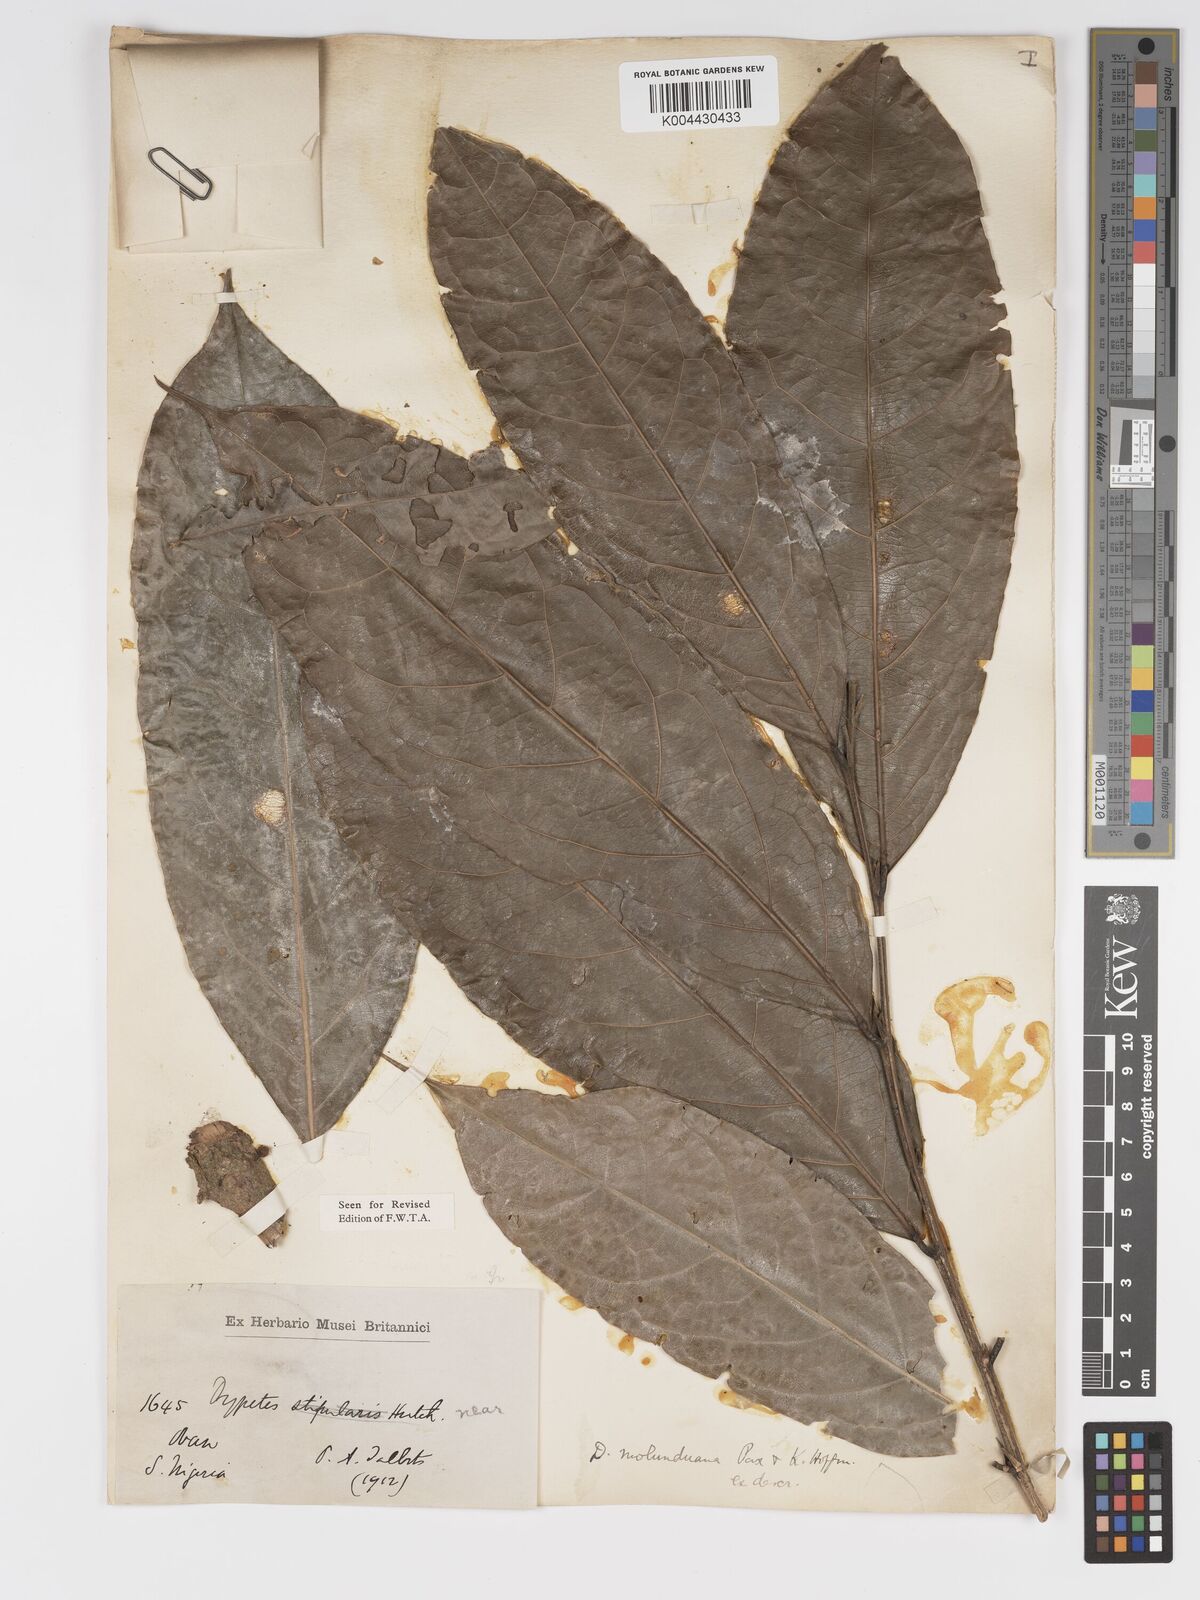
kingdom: Plantae
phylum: Tracheophyta
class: Magnoliopsida
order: Malpighiales
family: Putranjivaceae
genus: Drypetes
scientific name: Drypetes molunduana
